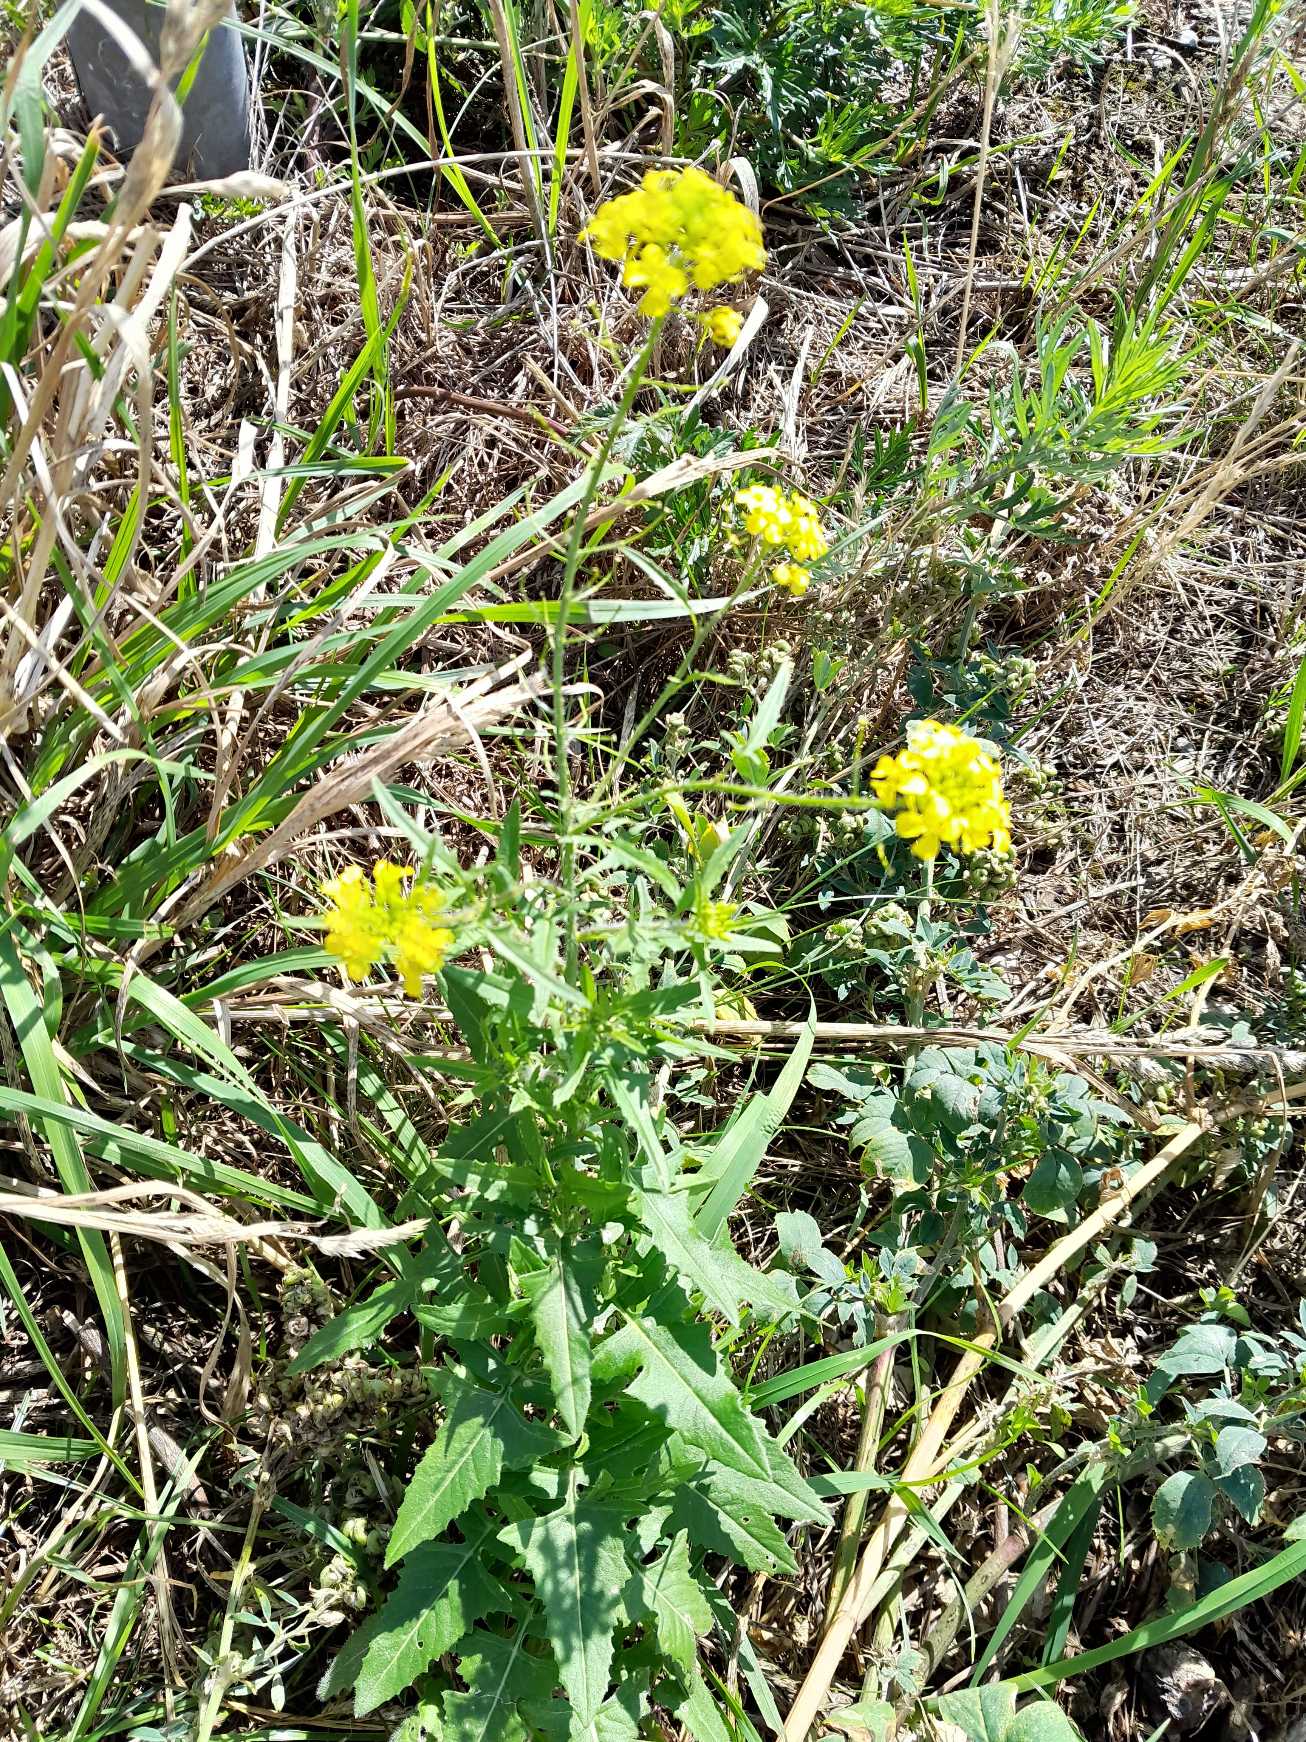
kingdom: Plantae
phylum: Tracheophyta
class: Magnoliopsida
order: Brassicales
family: Brassicaceae
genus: Sisymbrium
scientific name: Sisymbrium loeselii
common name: Stivhåret vejsennep
